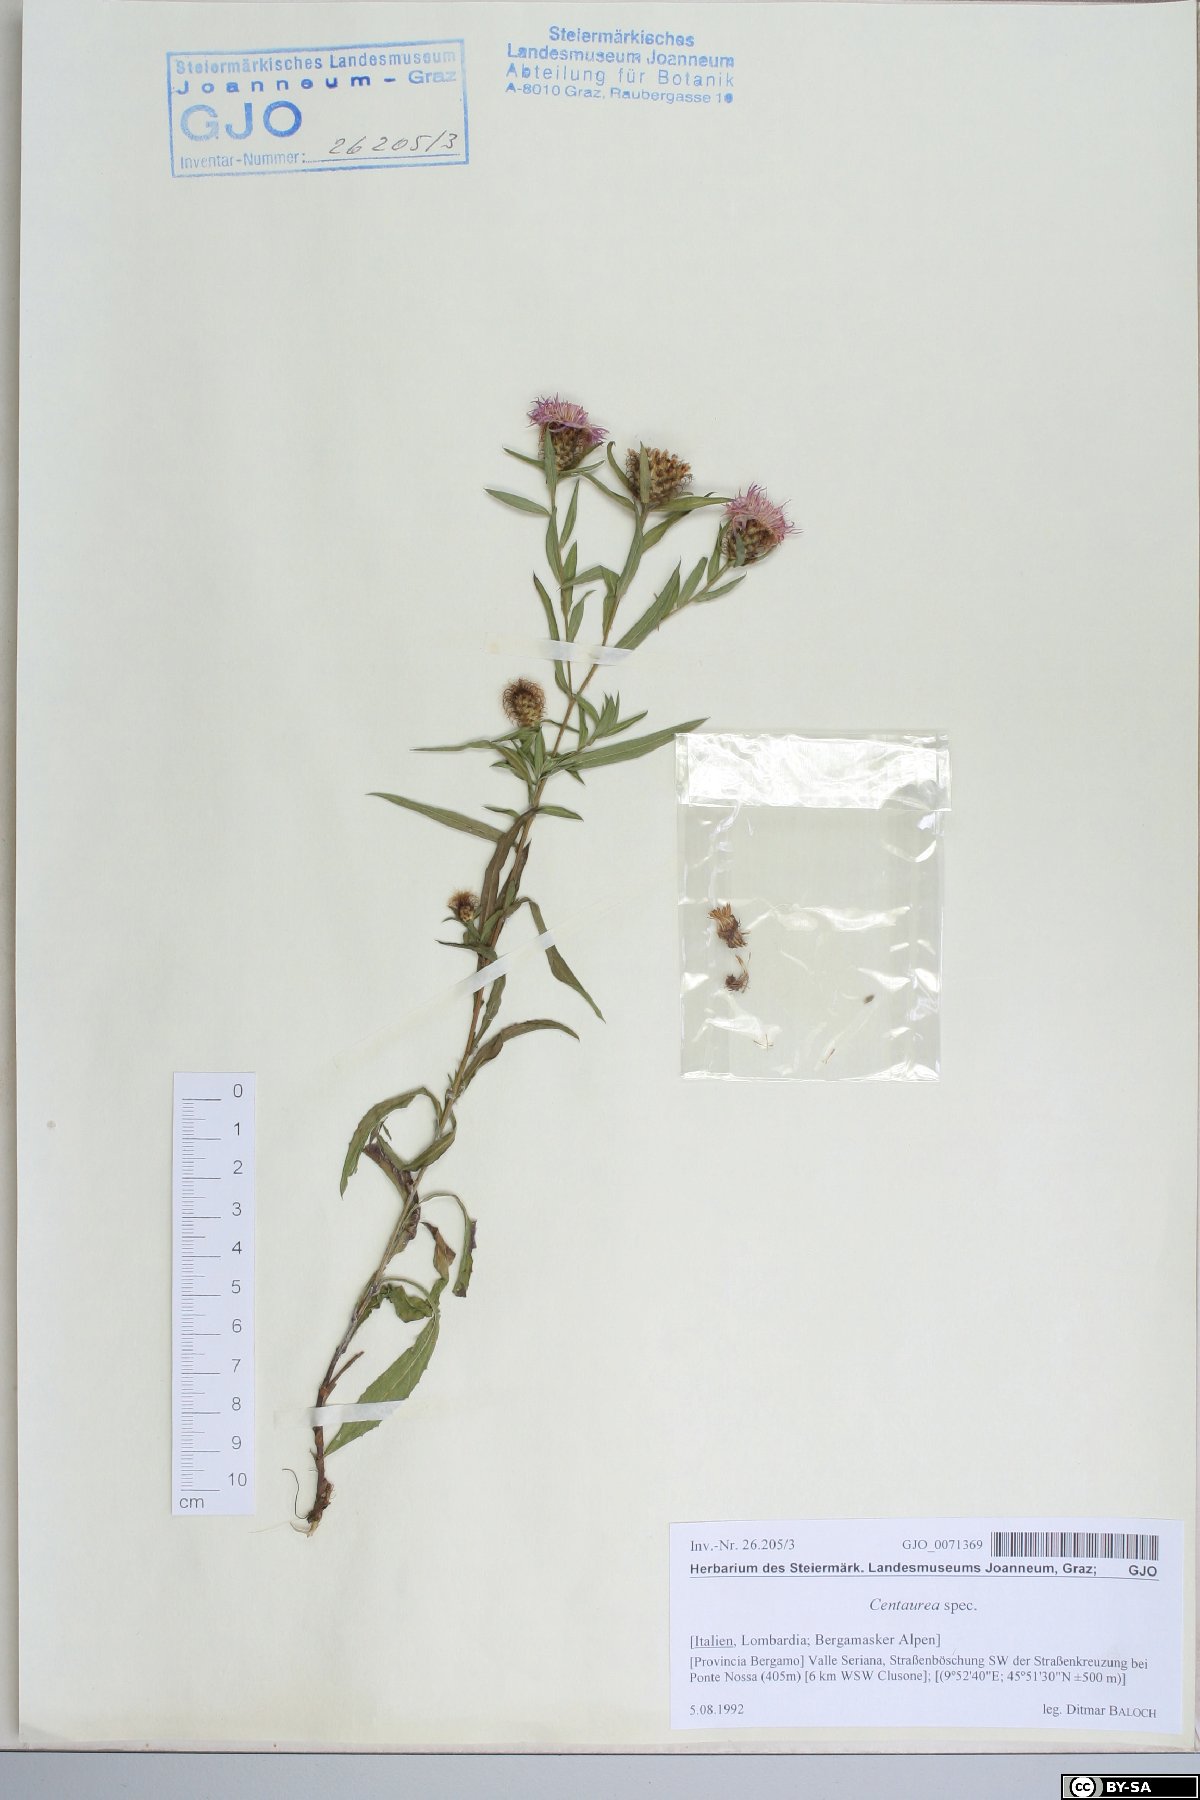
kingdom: Plantae
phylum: Tracheophyta
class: Magnoliopsida
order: Asterales
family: Asteraceae
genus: Centaurea
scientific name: Centaurea
